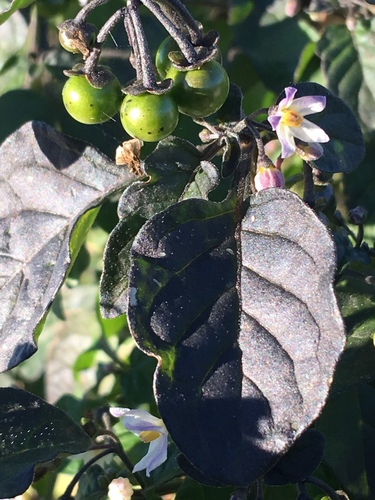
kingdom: Plantae
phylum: Tracheophyta
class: Magnoliopsida
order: Solanales
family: Solanaceae
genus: Solanum
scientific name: Solanum nigrum
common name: Black nightshade
